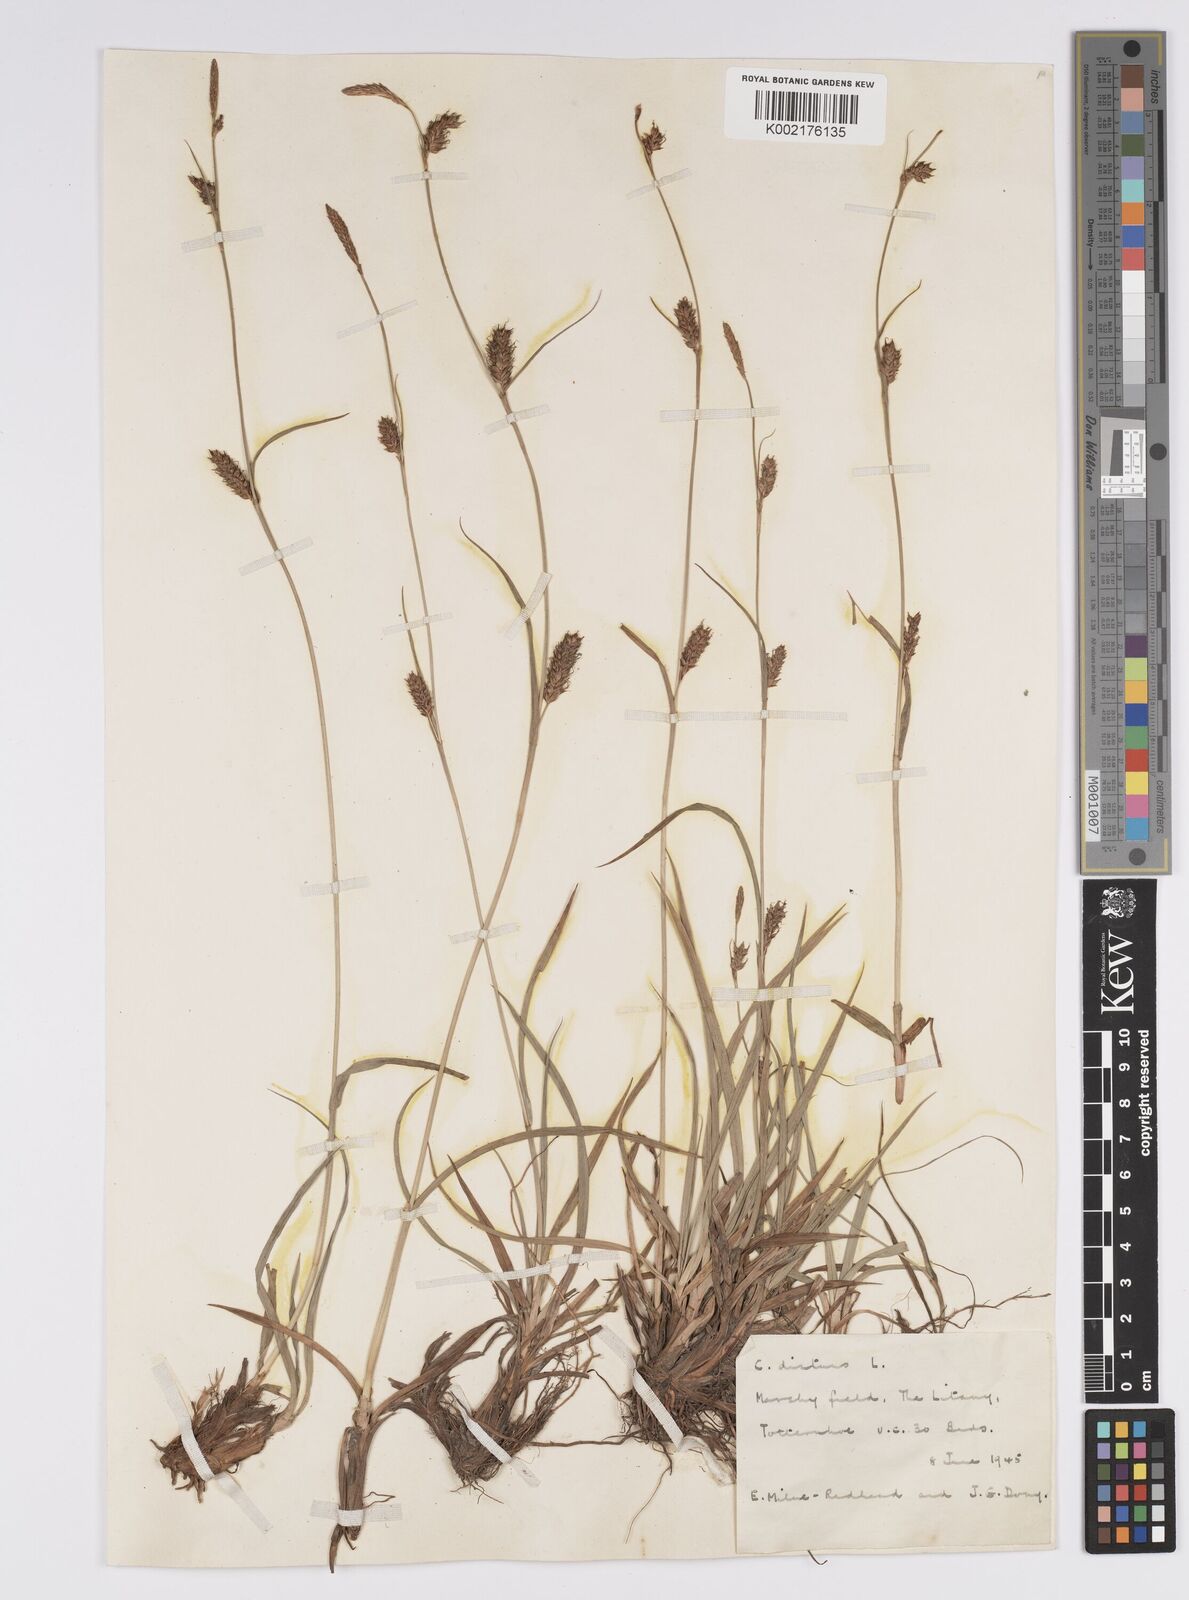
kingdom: Plantae
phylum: Tracheophyta
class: Liliopsida
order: Poales
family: Cyperaceae
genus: Carex
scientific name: Carex distans
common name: Distant sedge
